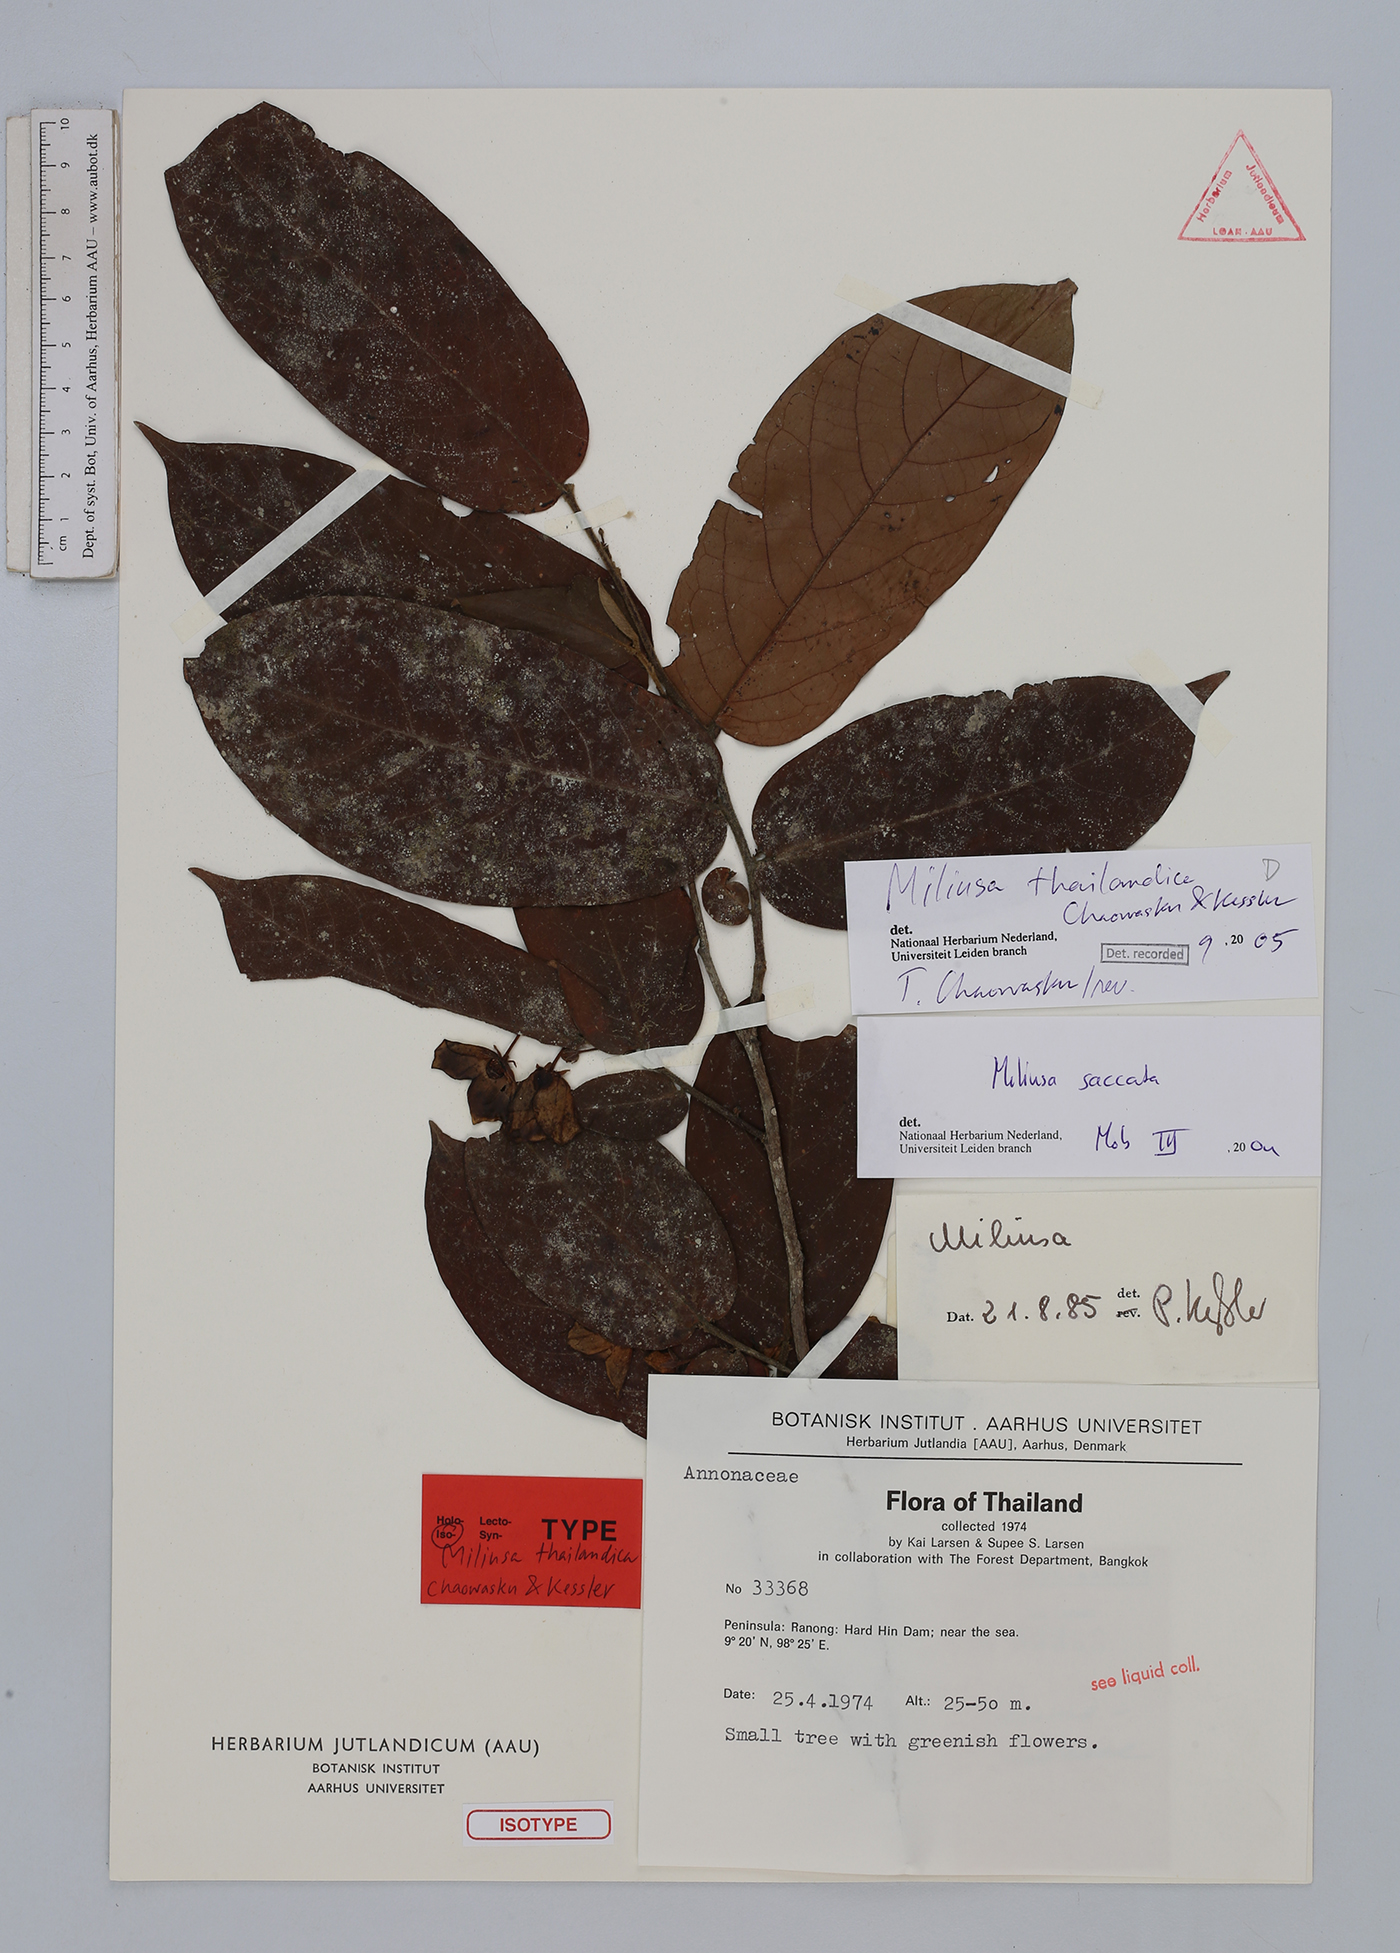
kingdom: Plantae
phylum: Tracheophyta
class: Magnoliopsida
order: Magnoliales
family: Annonaceae
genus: Miliusa
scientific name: Miliusa thailandica
